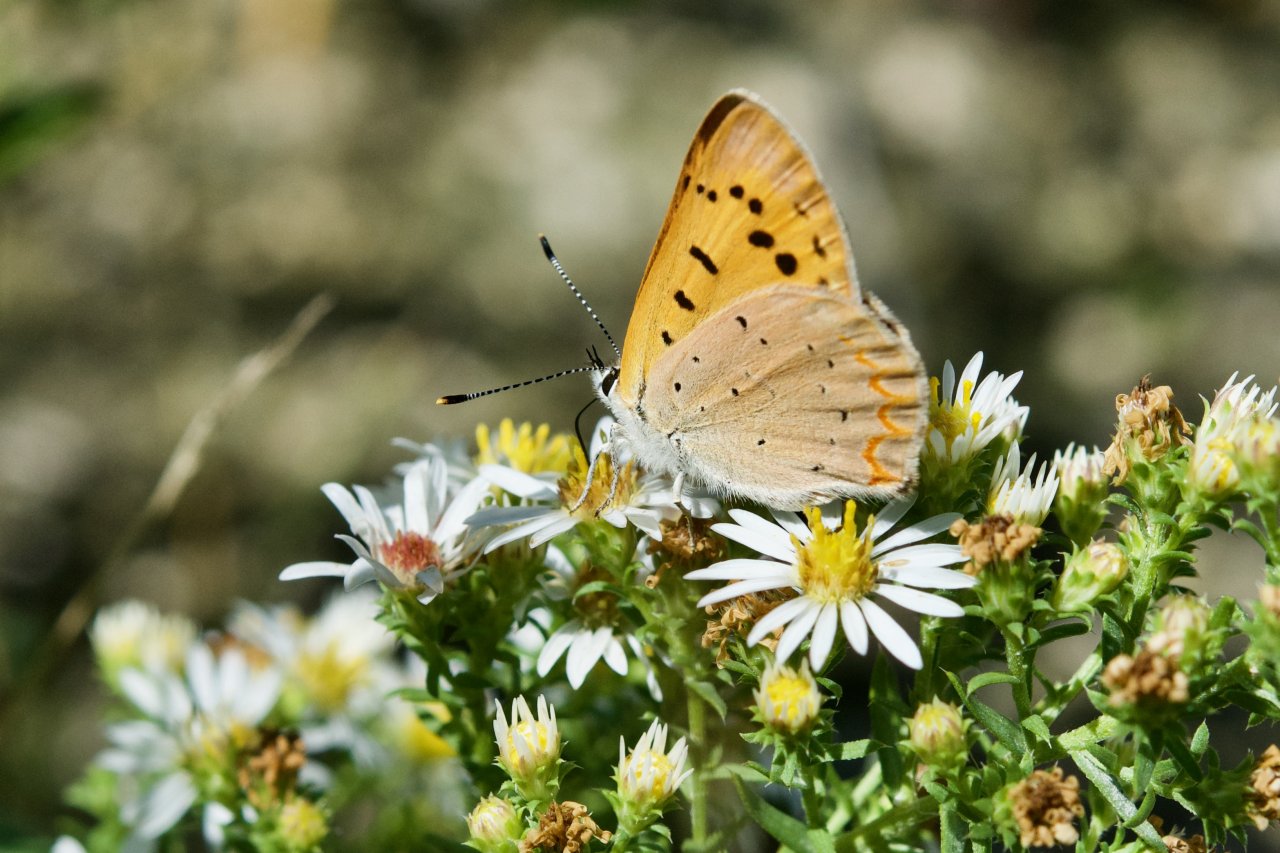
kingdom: Animalia
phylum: Arthropoda
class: Insecta
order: Lepidoptera
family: Sesiidae
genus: Sesia
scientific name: Sesia Lycaena helloides
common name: Purplish Copper
